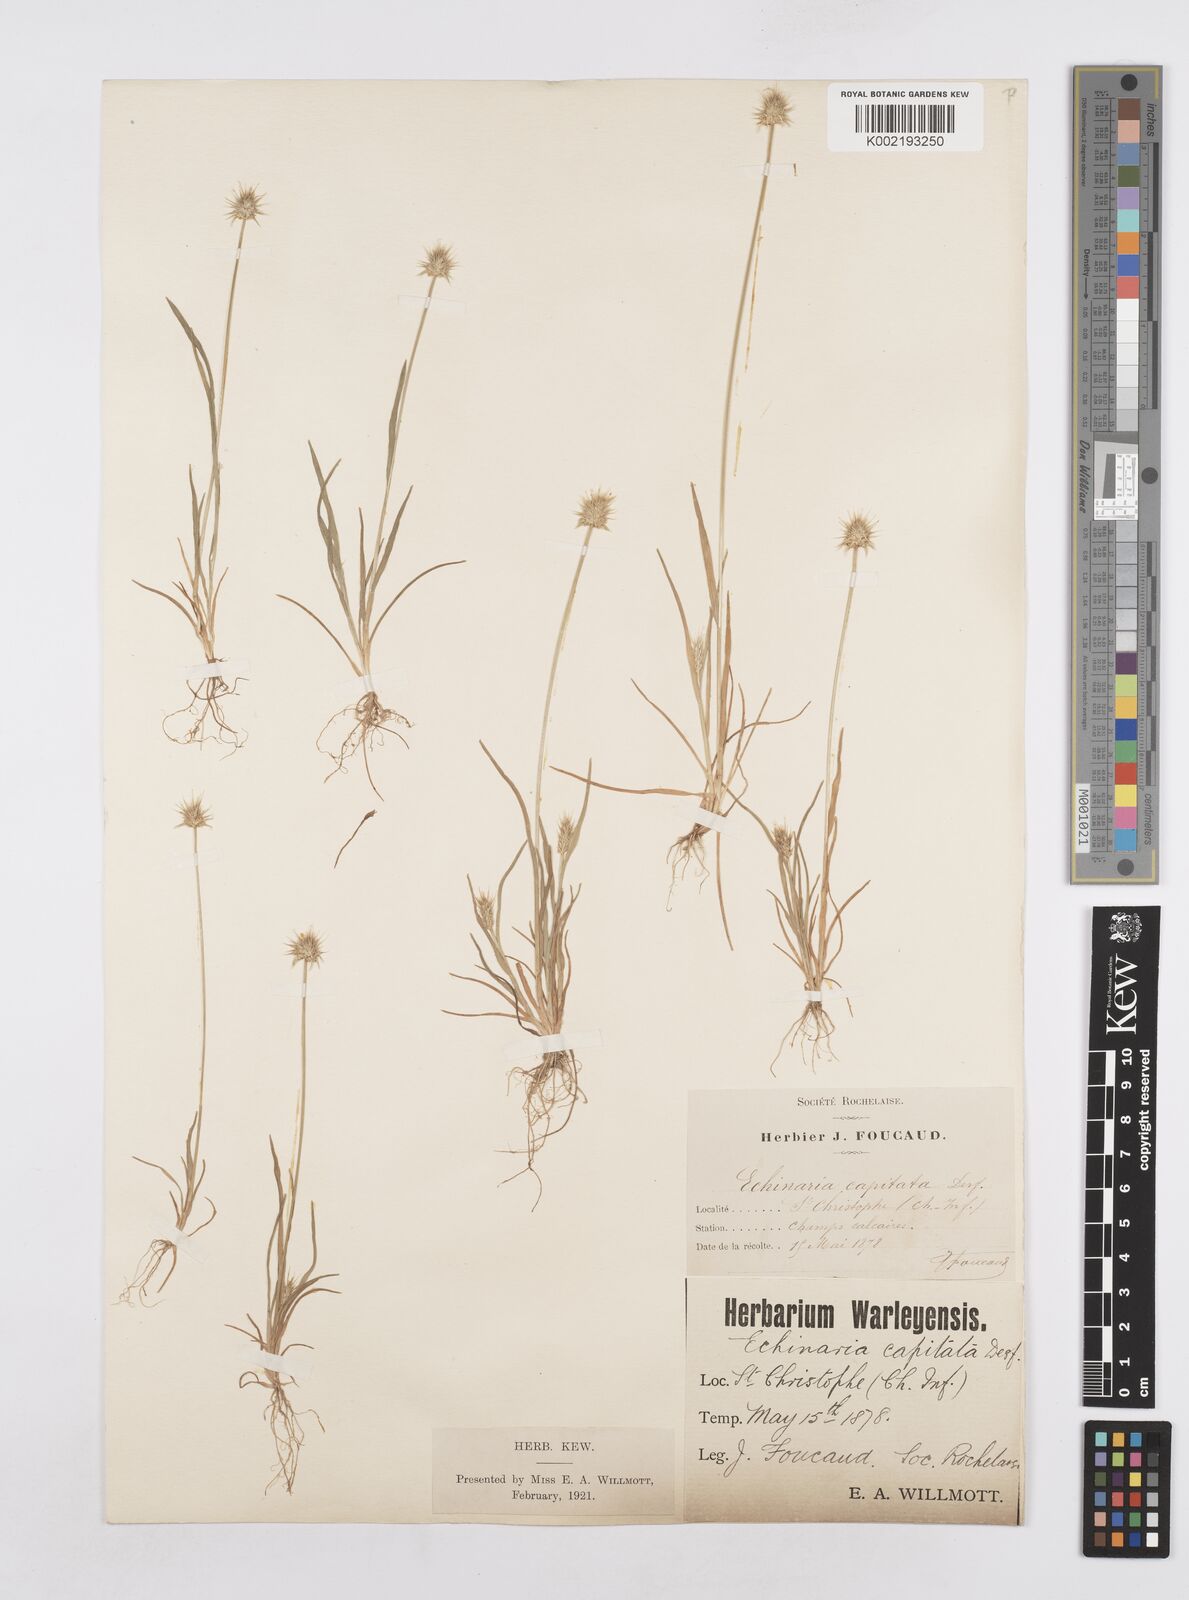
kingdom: Plantae
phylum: Tracheophyta
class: Liliopsida
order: Poales
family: Poaceae
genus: Echinaria
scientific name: Echinaria capitata
